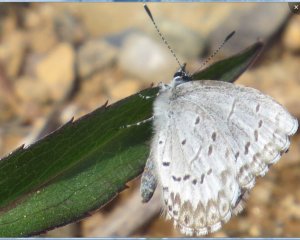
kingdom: Animalia
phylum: Arthropoda
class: Insecta
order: Lepidoptera
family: Lycaenidae
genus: Celastrina
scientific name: Celastrina serotina
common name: Cherry Gall Azure
